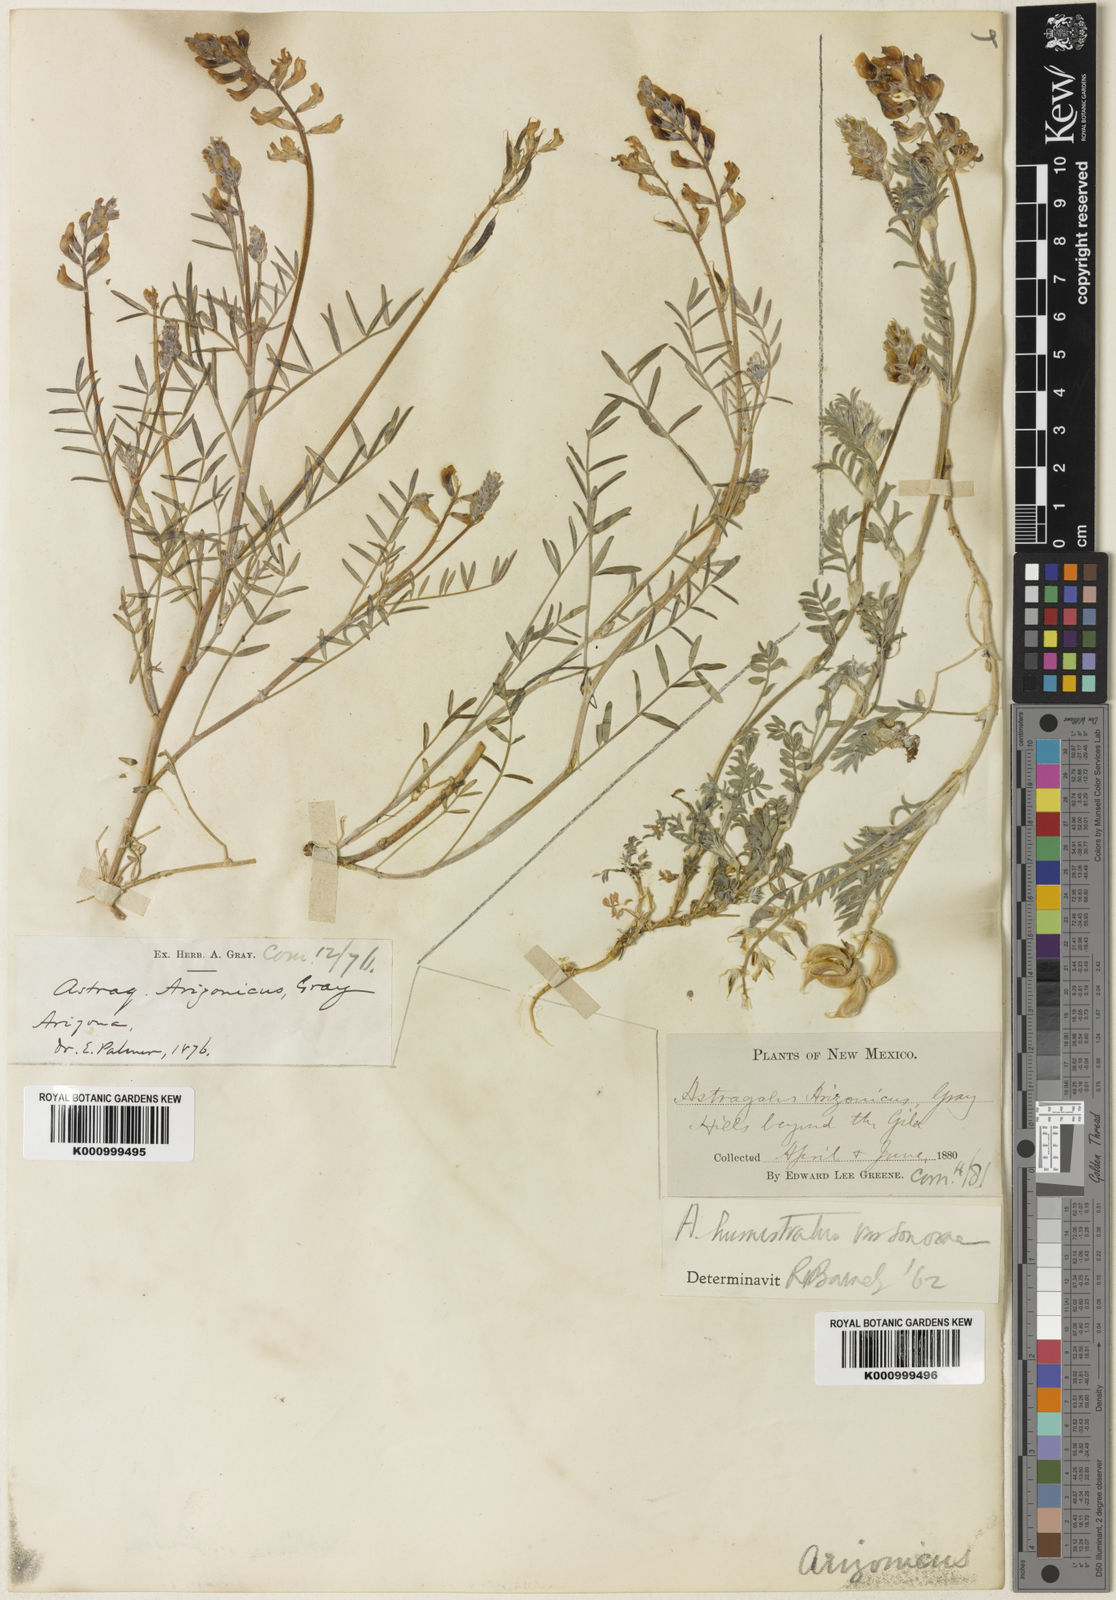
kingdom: Plantae
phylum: Tracheophyta
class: Magnoliopsida
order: Fabales
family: Fabaceae
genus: Astragalus
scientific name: Astragalus arizonicus
